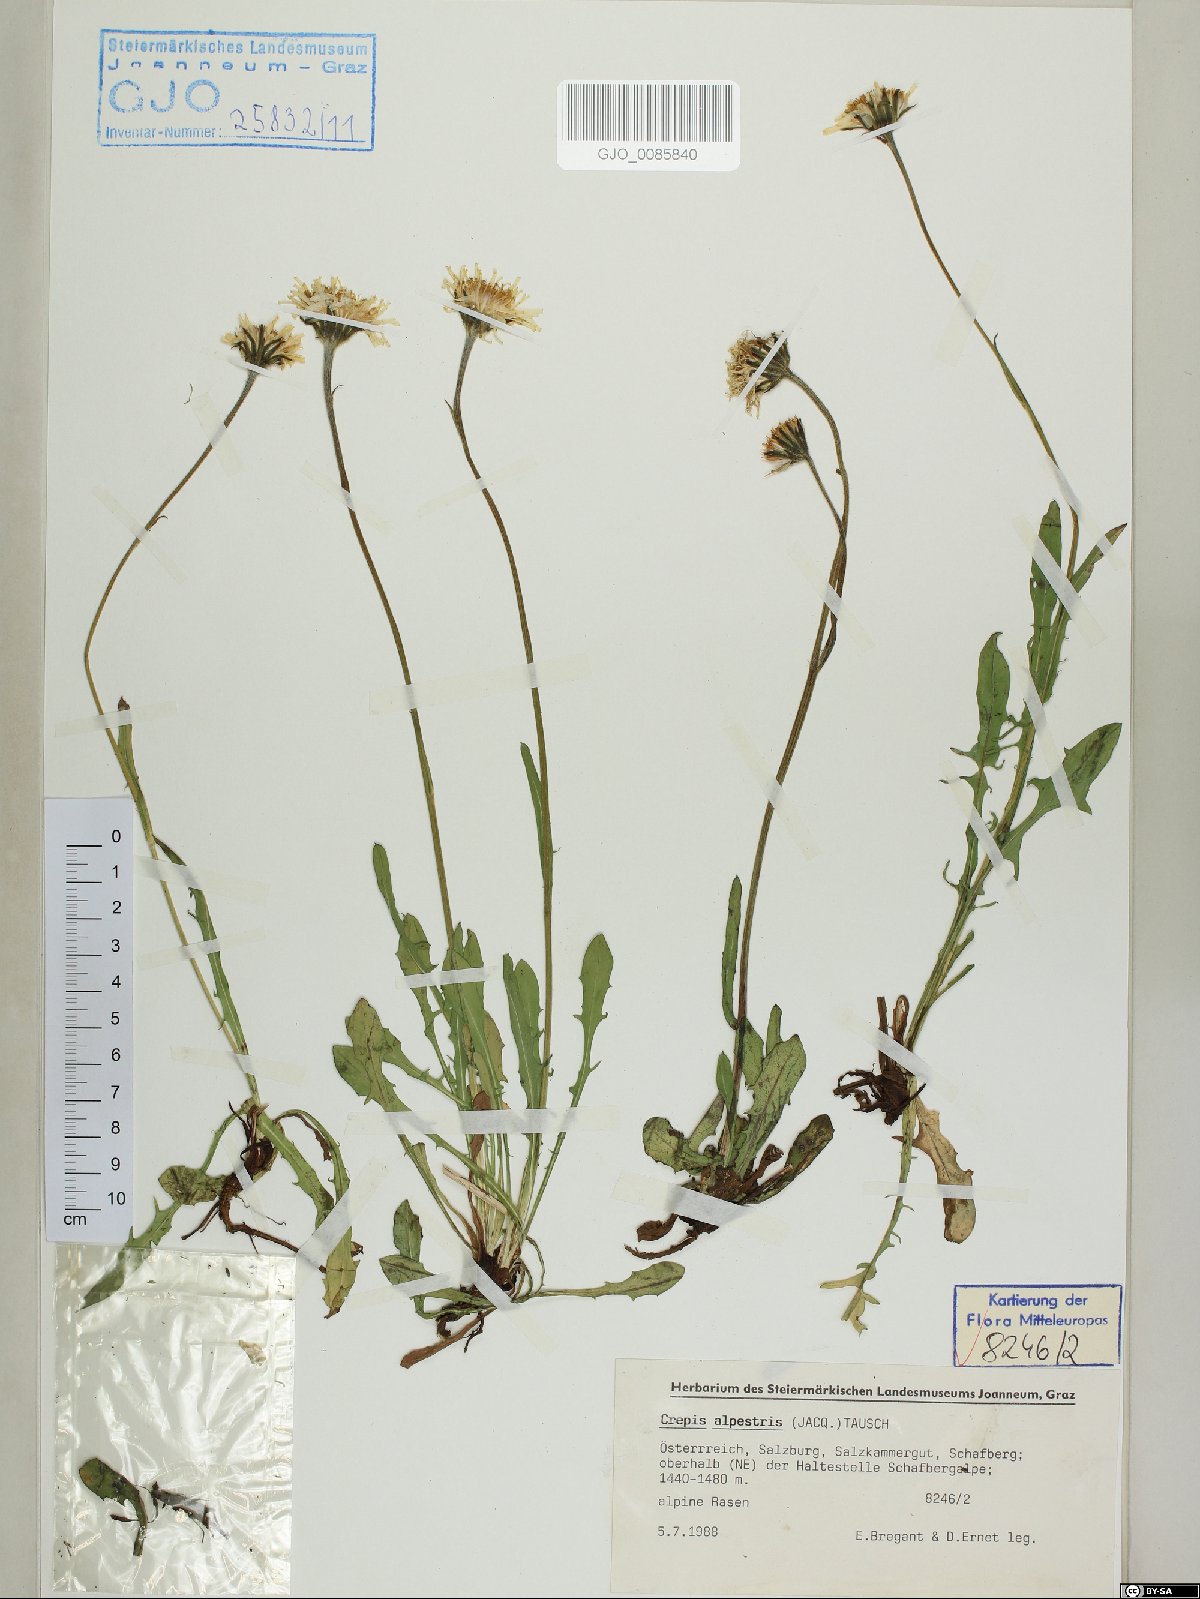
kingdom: Plantae
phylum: Tracheophyta
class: Magnoliopsida
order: Asterales
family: Asteraceae
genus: Crepis
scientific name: Crepis alpestris
